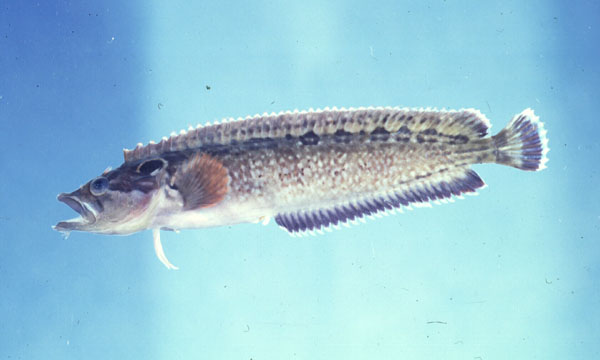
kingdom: Animalia
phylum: Chordata
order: Perciformes
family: Clinidae
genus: Cirrhibarbis
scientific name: Cirrhibarbis capensis
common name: Barbelled klipfish
